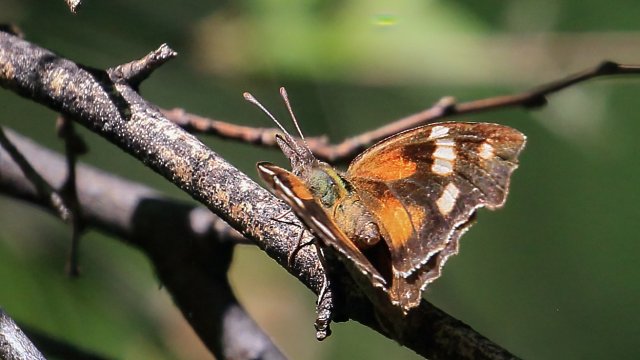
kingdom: Animalia
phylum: Arthropoda
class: Insecta
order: Lepidoptera
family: Nymphalidae
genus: Libytheana
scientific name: Libytheana carinenta
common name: American Snout
